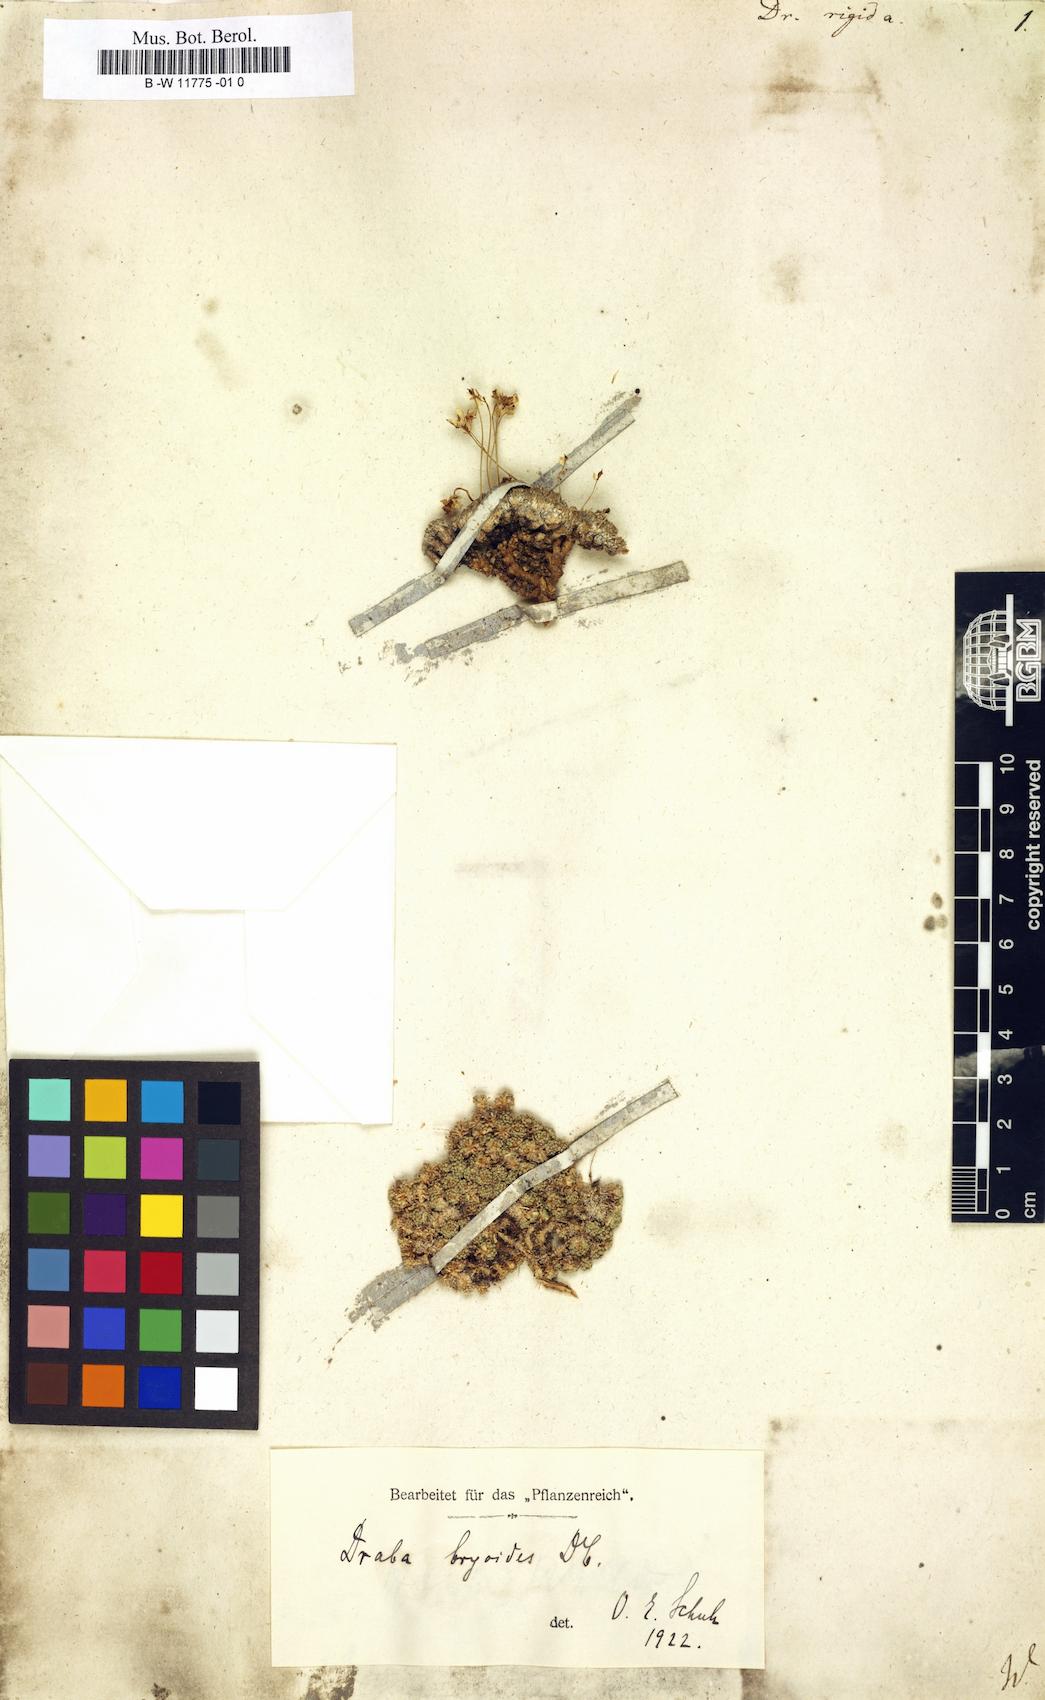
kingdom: Plantae
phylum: Tracheophyta
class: Magnoliopsida
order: Brassicales
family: Brassicaceae
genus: Draba
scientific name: Draba rigida
